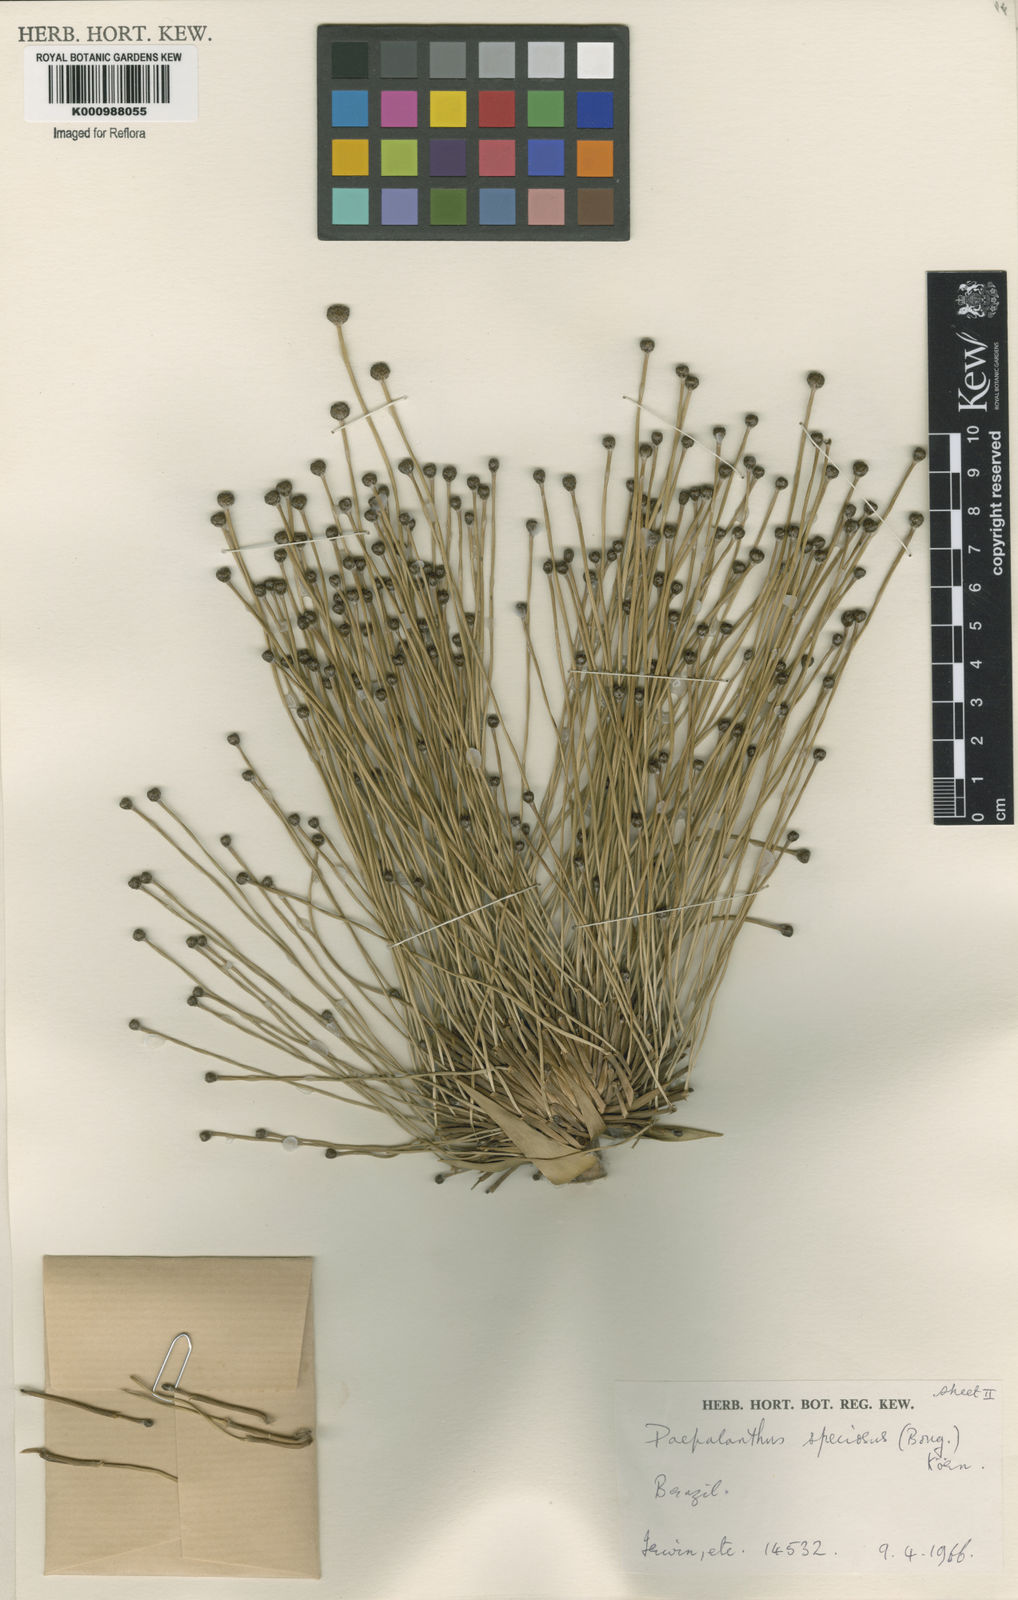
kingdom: Plantae
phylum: Tracheophyta
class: Liliopsida
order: Poales
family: Eriocaulaceae
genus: Paepalanthus
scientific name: Paepalanthus
